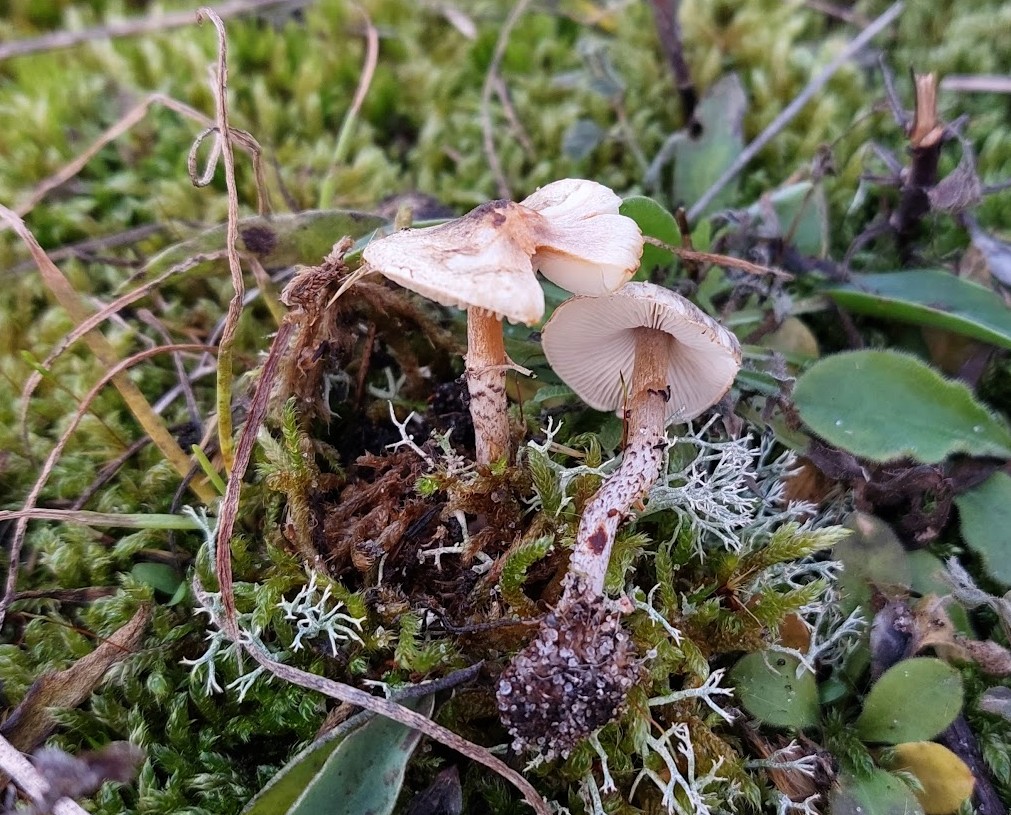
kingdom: Fungi
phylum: Basidiomycota
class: Agaricomycetes
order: Agaricales
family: Agaricaceae
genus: Lepiota
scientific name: Lepiota
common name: parasolhat
